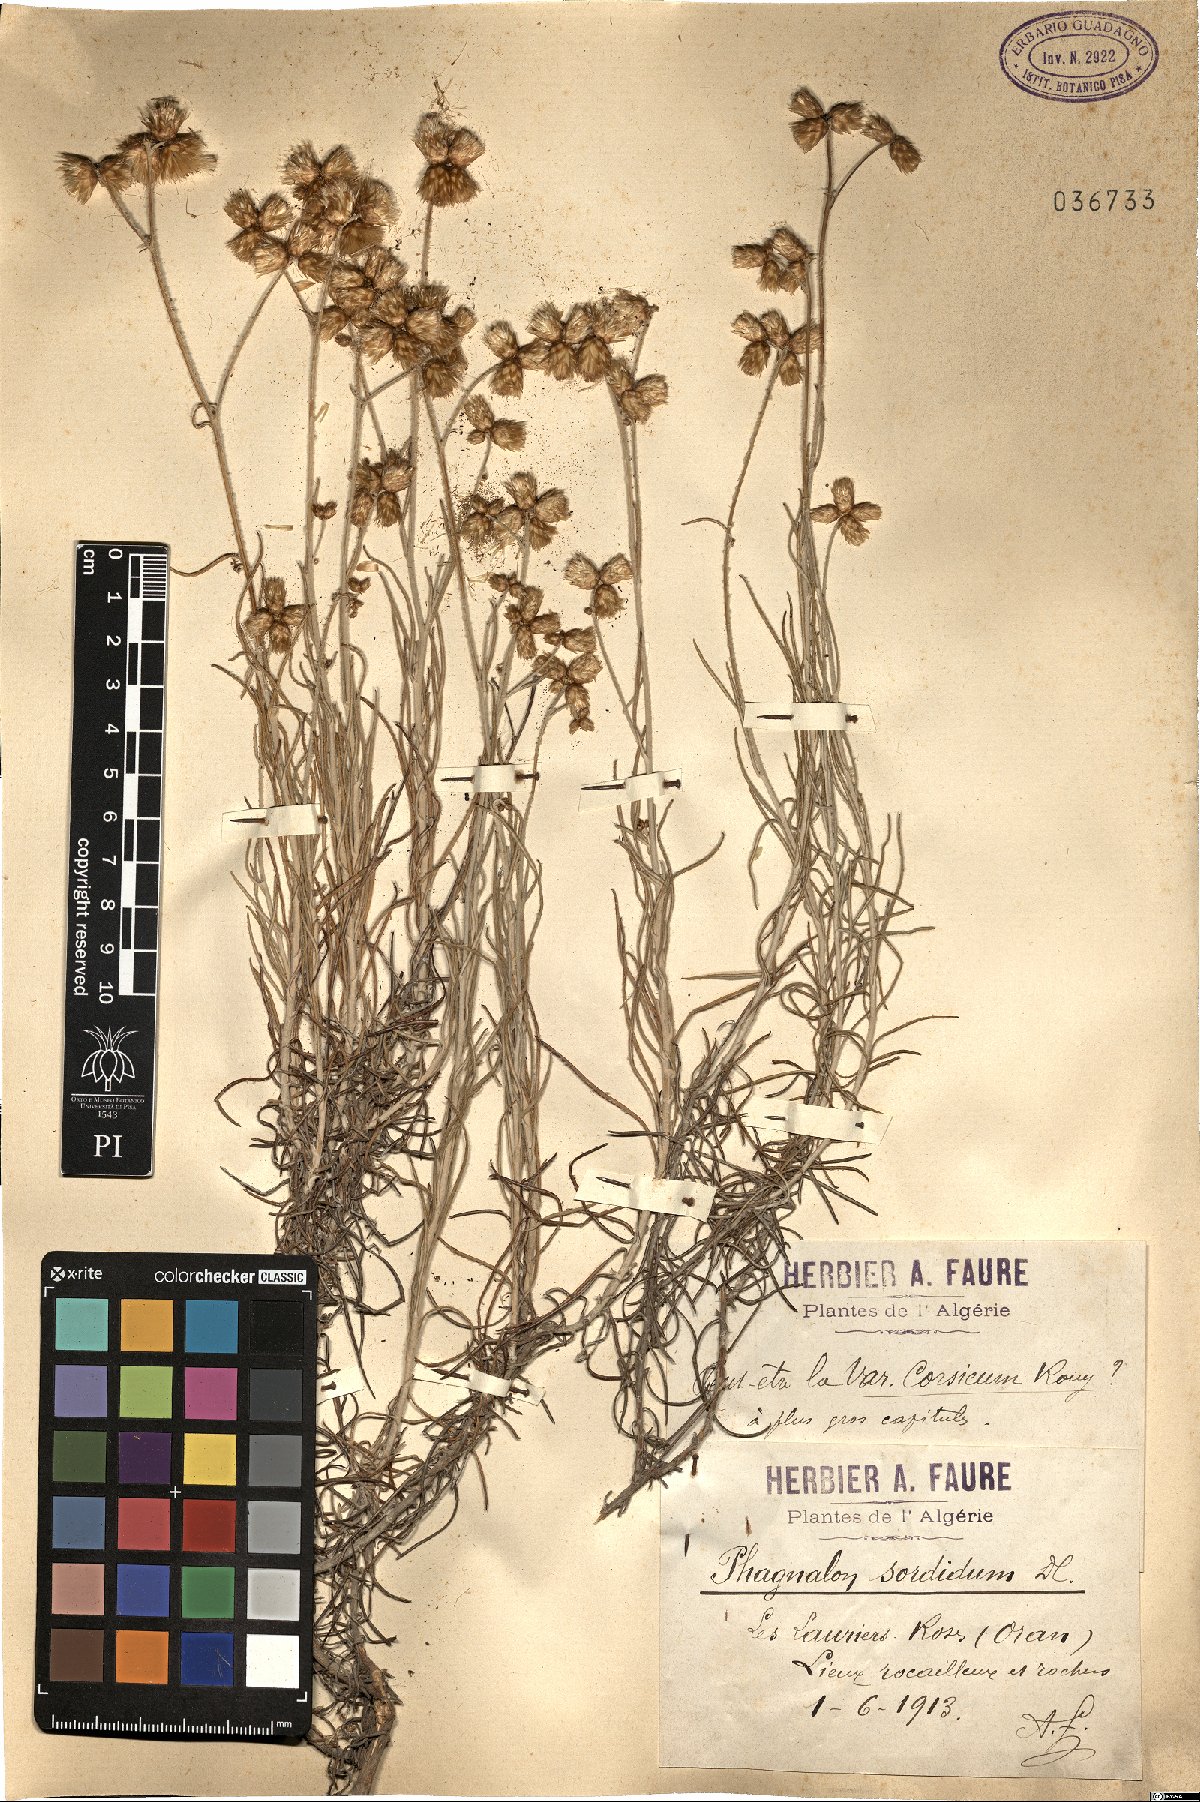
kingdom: Plantae
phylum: Tracheophyta
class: Magnoliopsida
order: Asterales
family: Asteraceae
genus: Phagnalon
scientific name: Phagnalon sordidum
